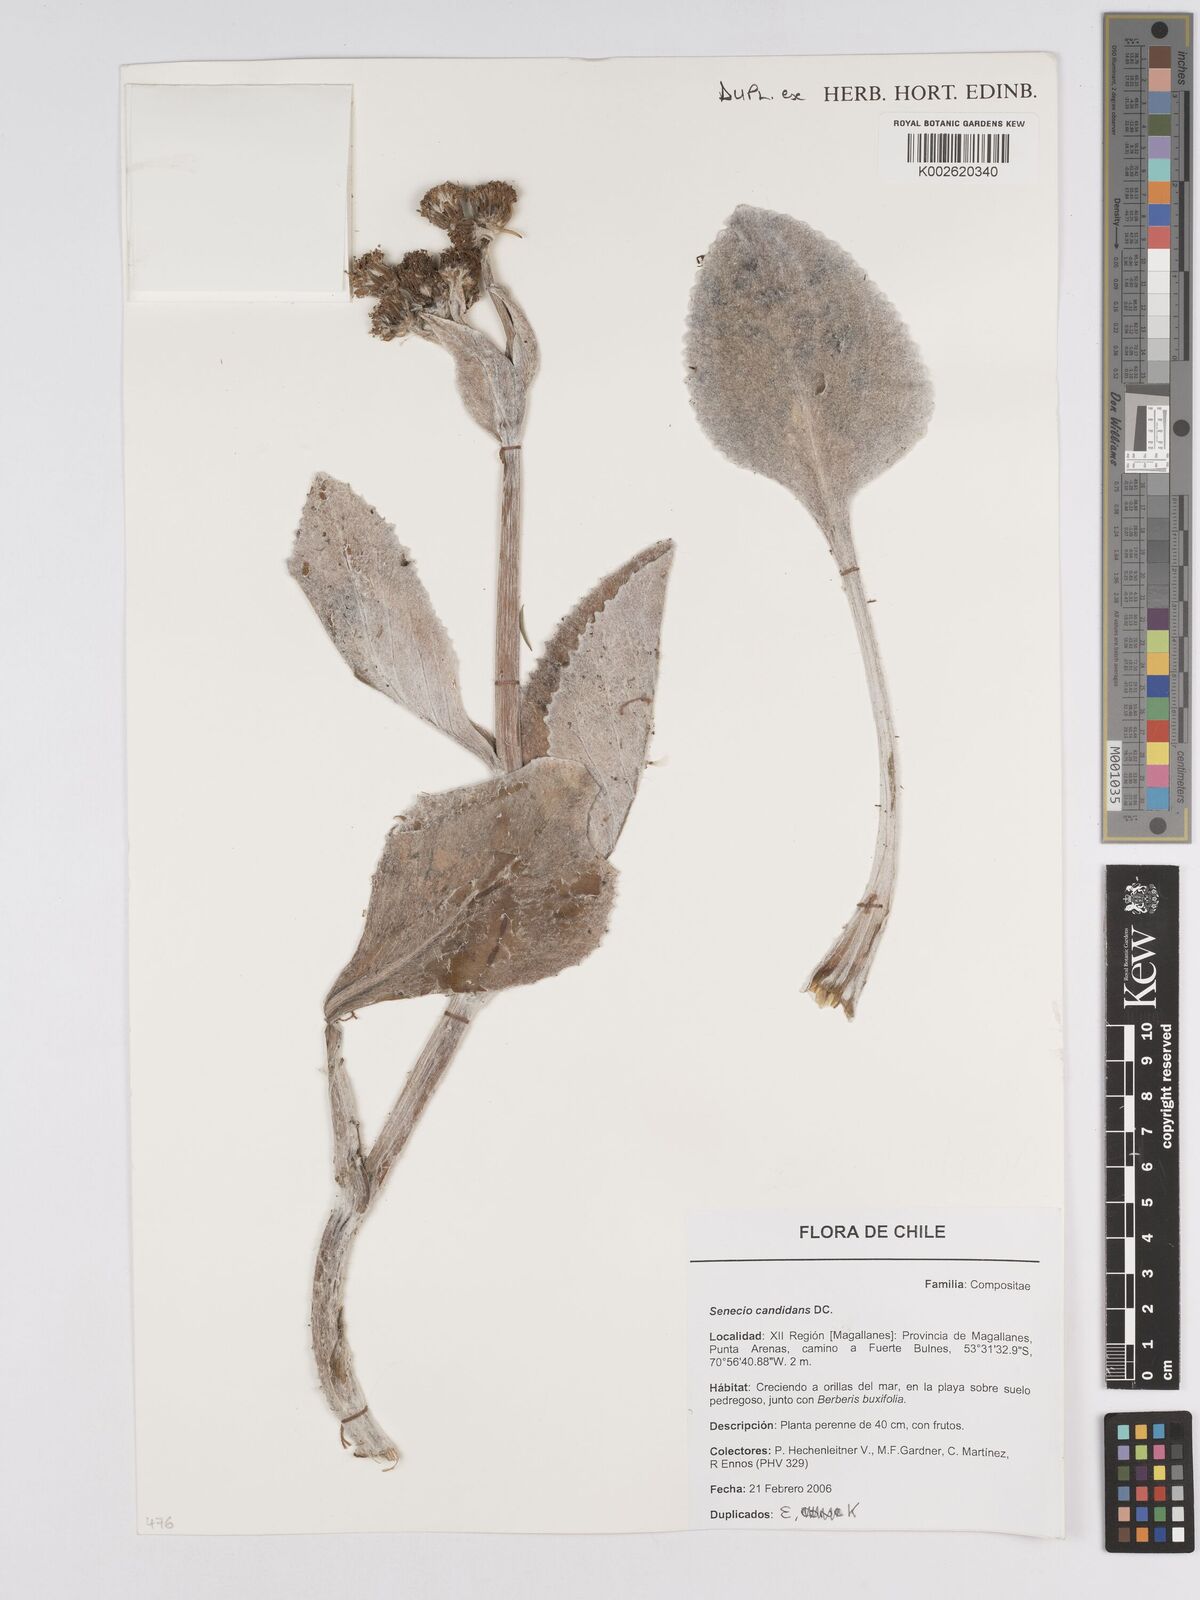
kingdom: Plantae
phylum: Tracheophyta
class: Magnoliopsida
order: Asterales
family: Asteraceae
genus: Senecio
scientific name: Senecio candidans
